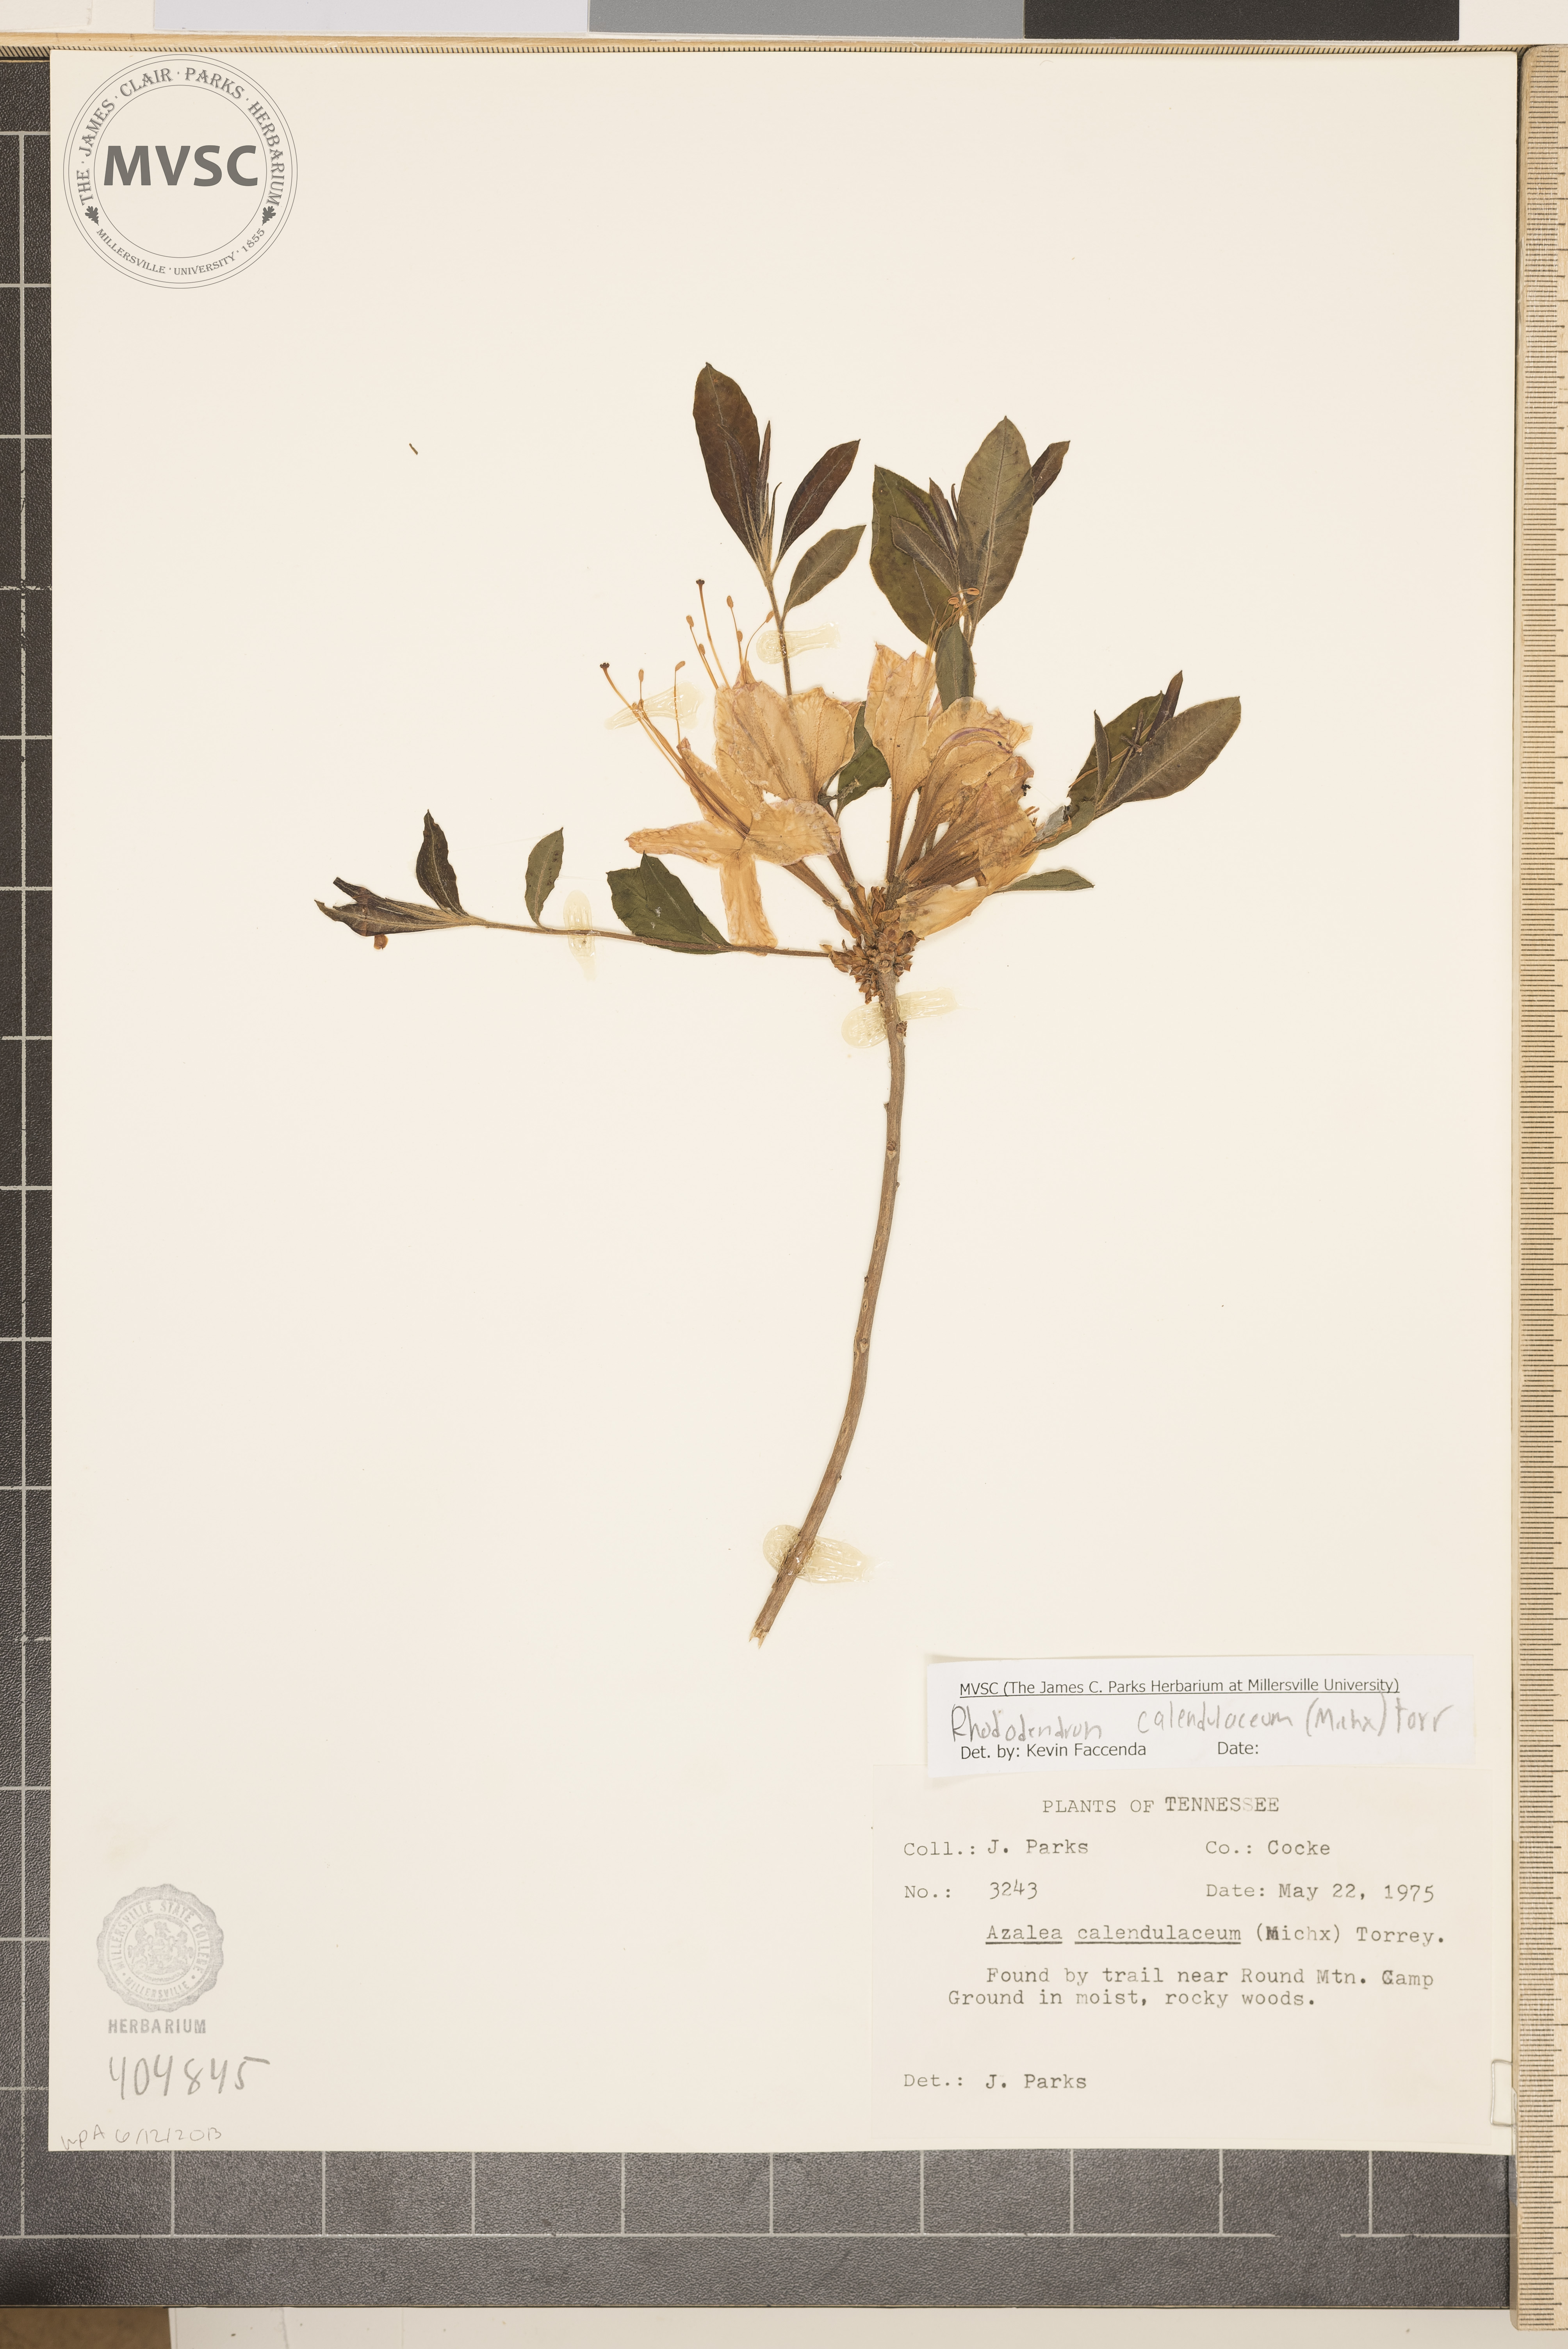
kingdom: Plantae
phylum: Tracheophyta
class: Magnoliopsida
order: Ericales
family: Ericaceae
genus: Rhododendron
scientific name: Rhododendron calendulaceum
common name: Flame azalea
